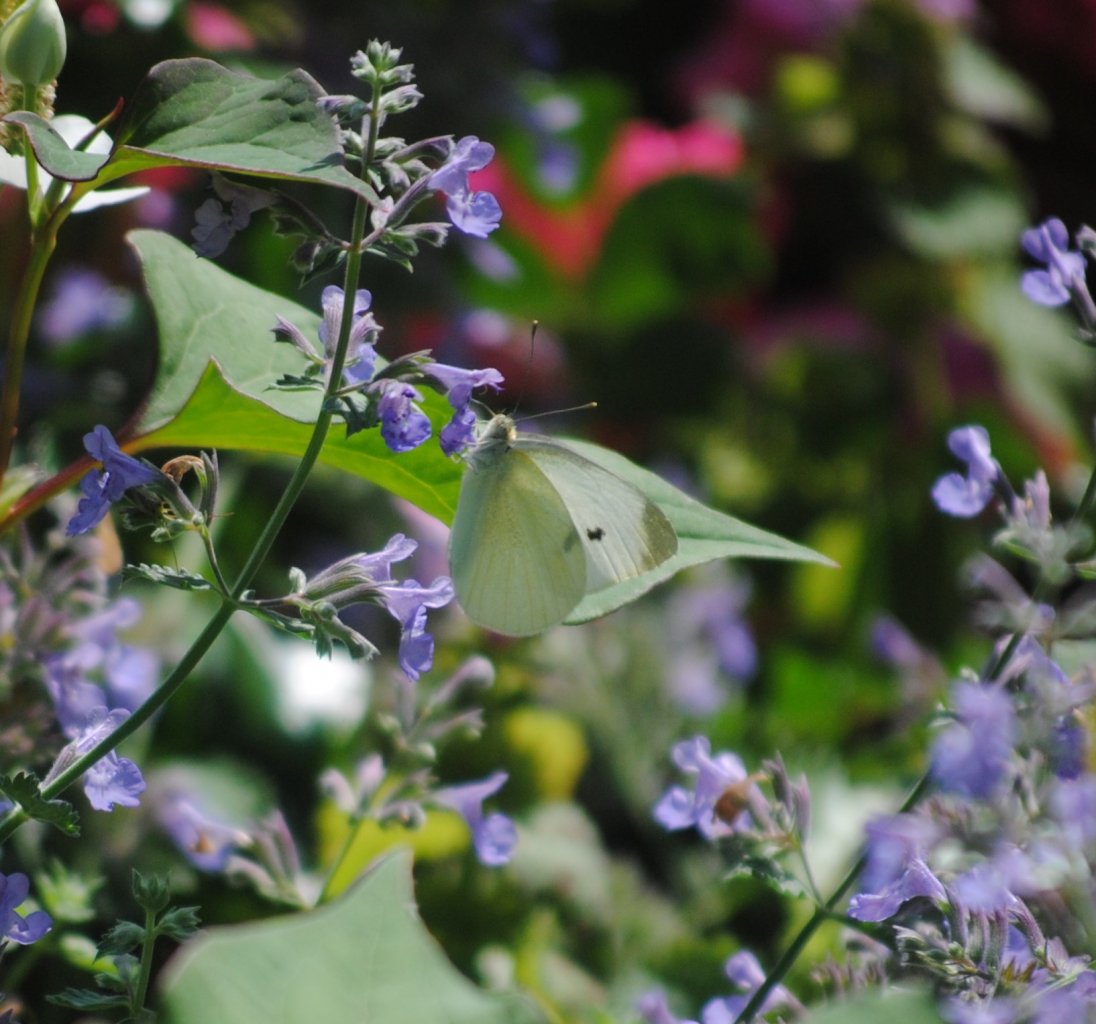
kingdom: Animalia
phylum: Arthropoda
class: Insecta
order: Lepidoptera
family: Pieridae
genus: Pieris
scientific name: Pieris rapae
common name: Cabbage White
